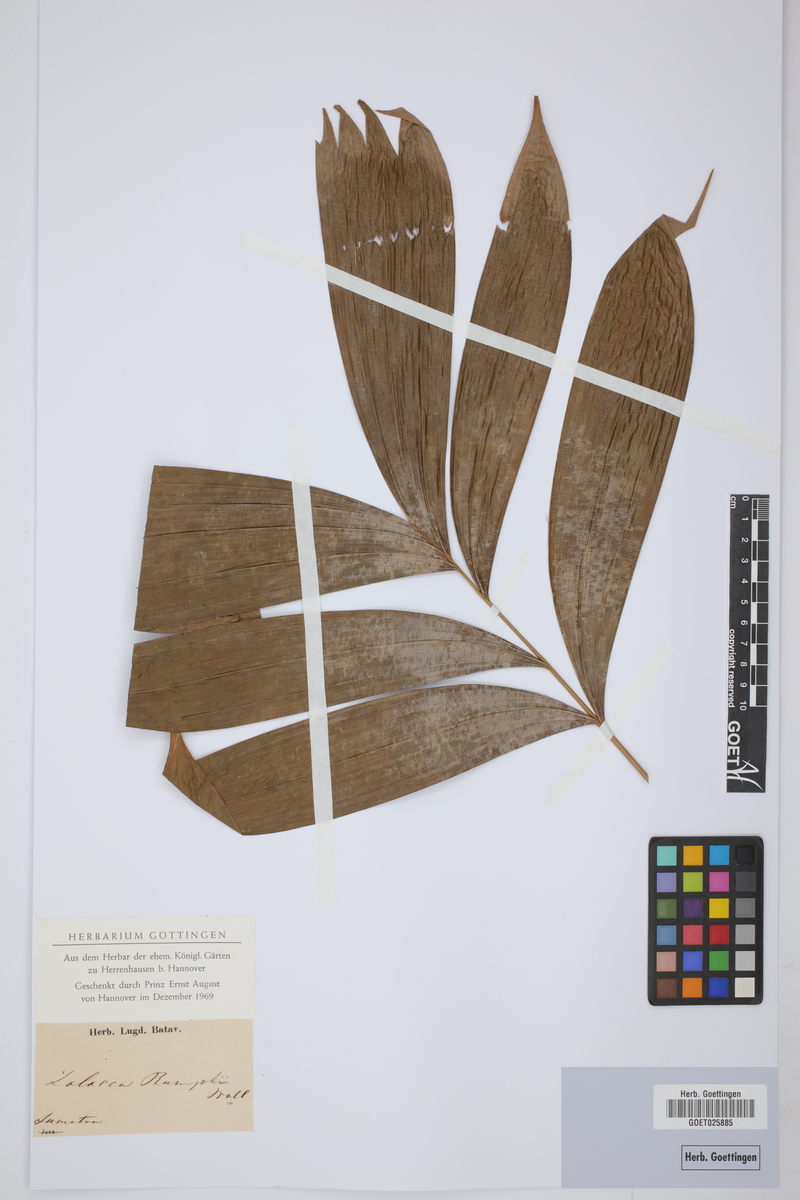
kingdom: Plantae
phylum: Tracheophyta
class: Liliopsida
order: Arecales
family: Arecaceae
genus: Salacca
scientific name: Salacca zalacca
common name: Salak
